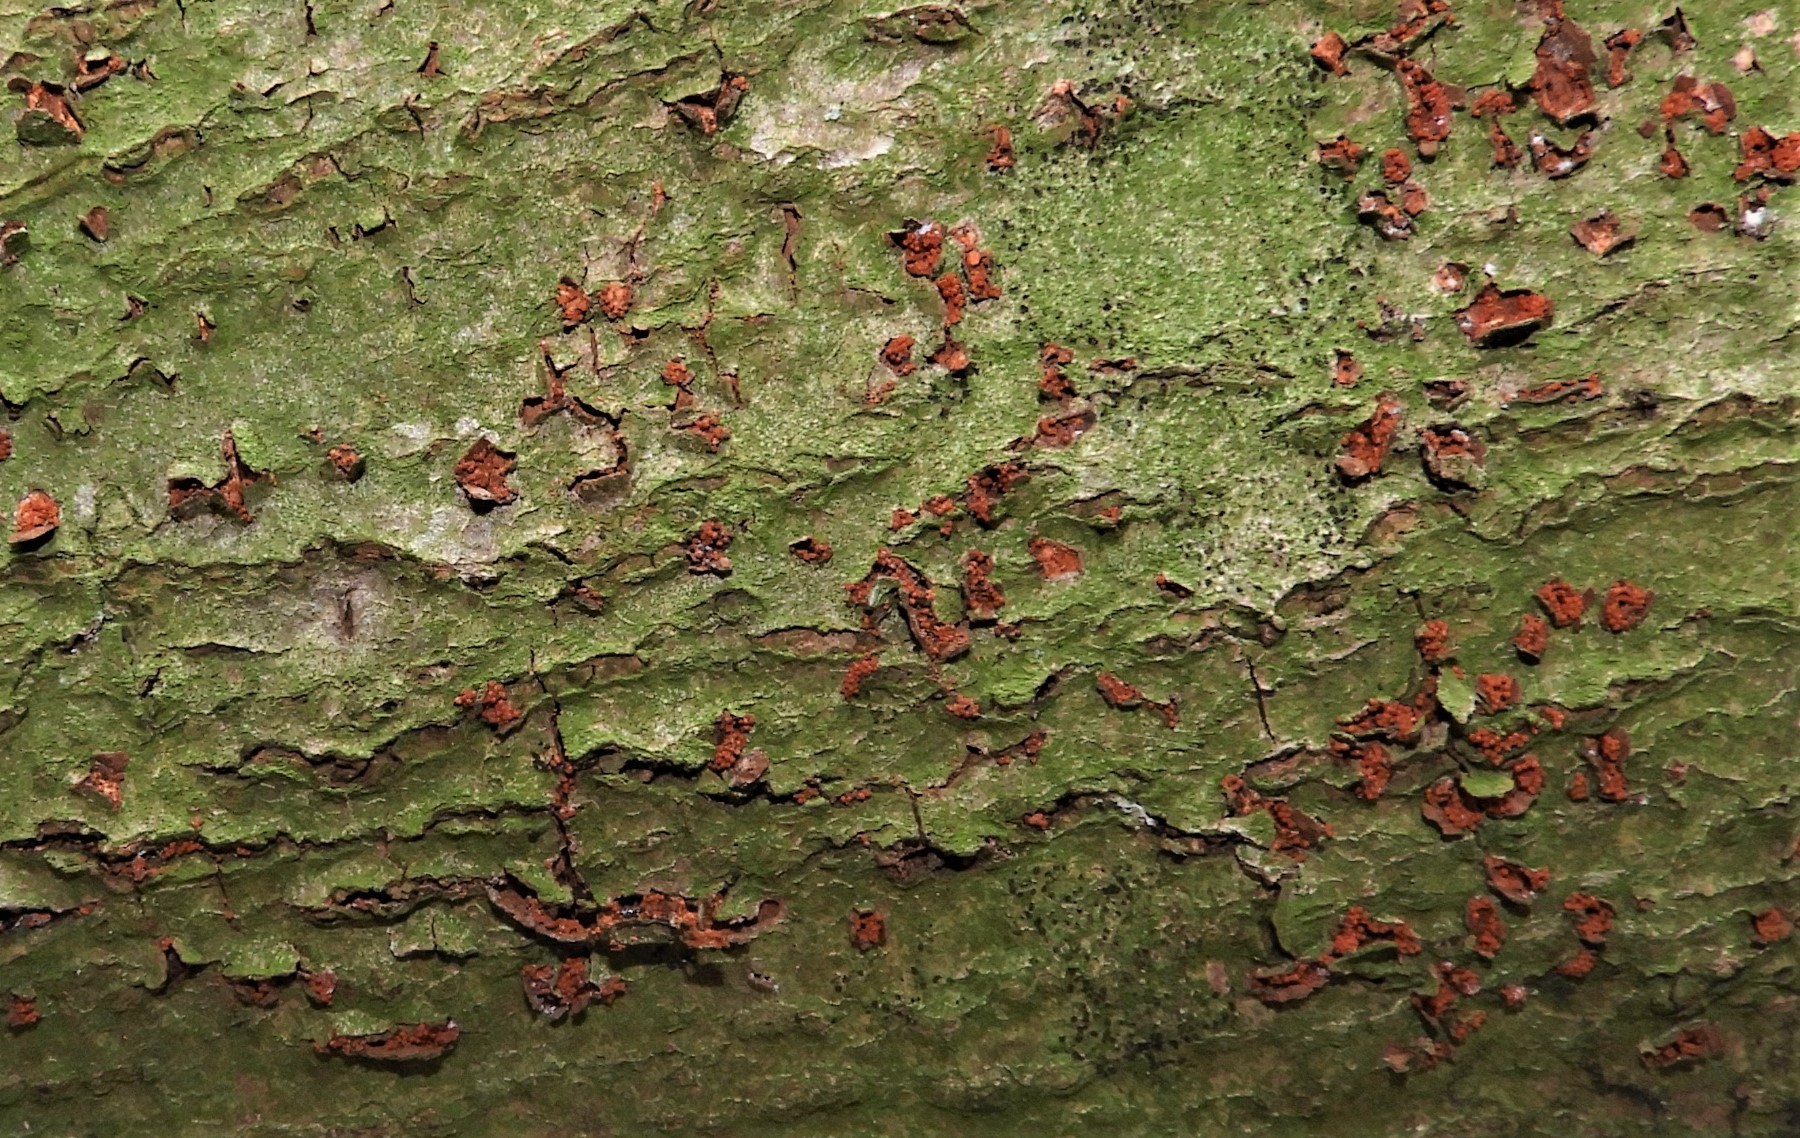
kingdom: Fungi
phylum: Ascomycota
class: Sordariomycetes
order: Hypocreales
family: Nectriaceae
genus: Neonectria
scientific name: Neonectria coccinea
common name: bøgebark-cinnobersvamp
